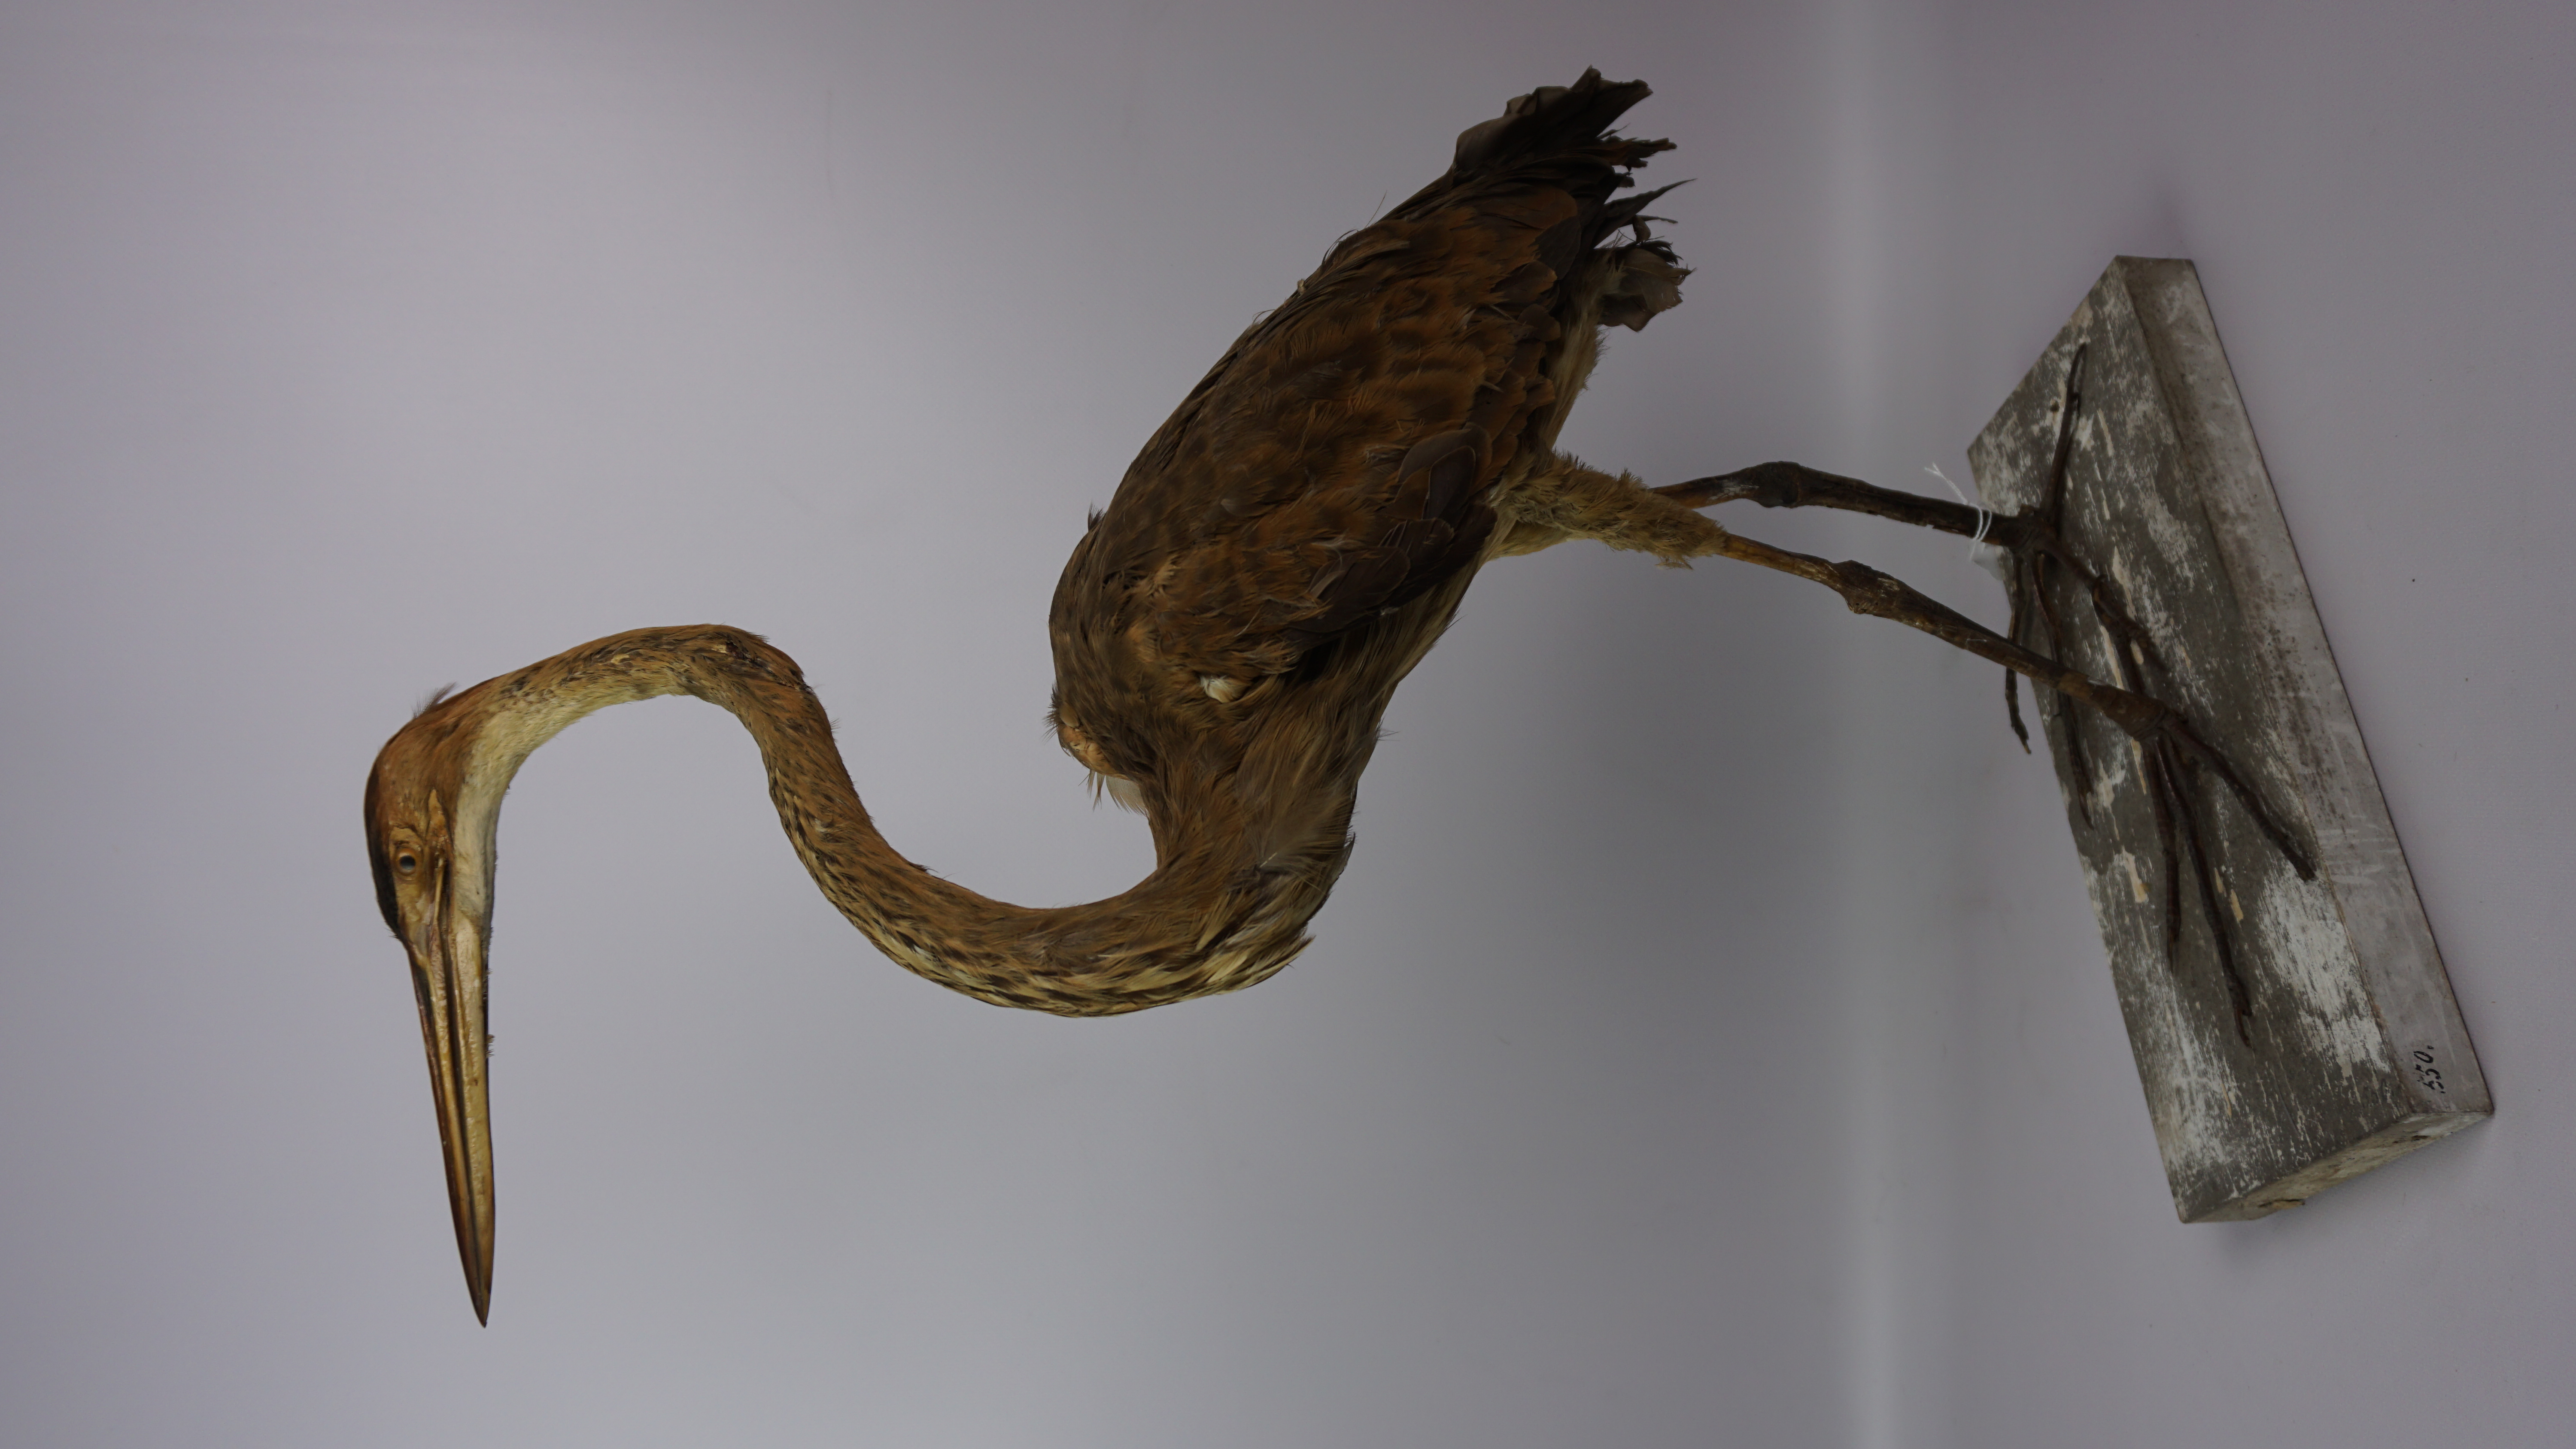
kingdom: Animalia
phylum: Chordata
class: Aves
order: Pelecaniformes
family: Ardeidae
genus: Ardea
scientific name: Ardea purpurea
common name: Purple heron
